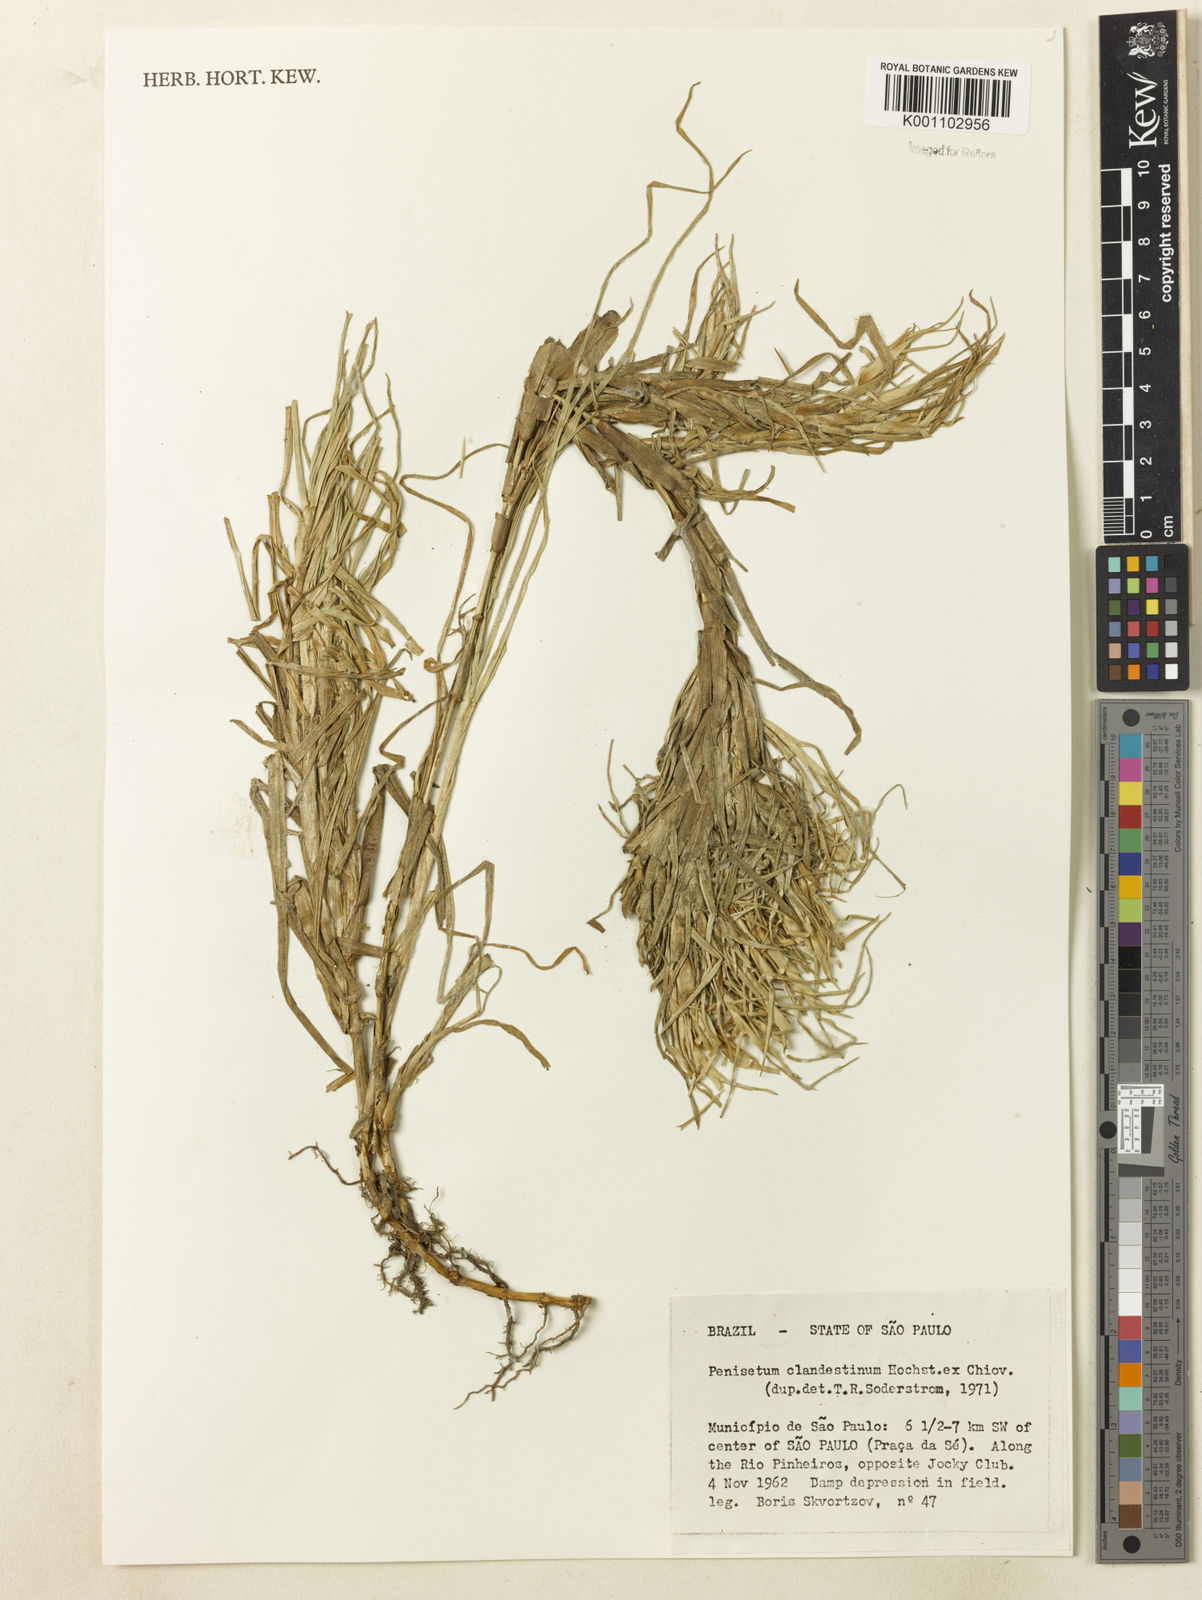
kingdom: Plantae
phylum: Tracheophyta
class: Liliopsida
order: Poales
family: Poaceae
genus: Cenchrus
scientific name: Cenchrus clandestinus
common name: Kikuyugrass
